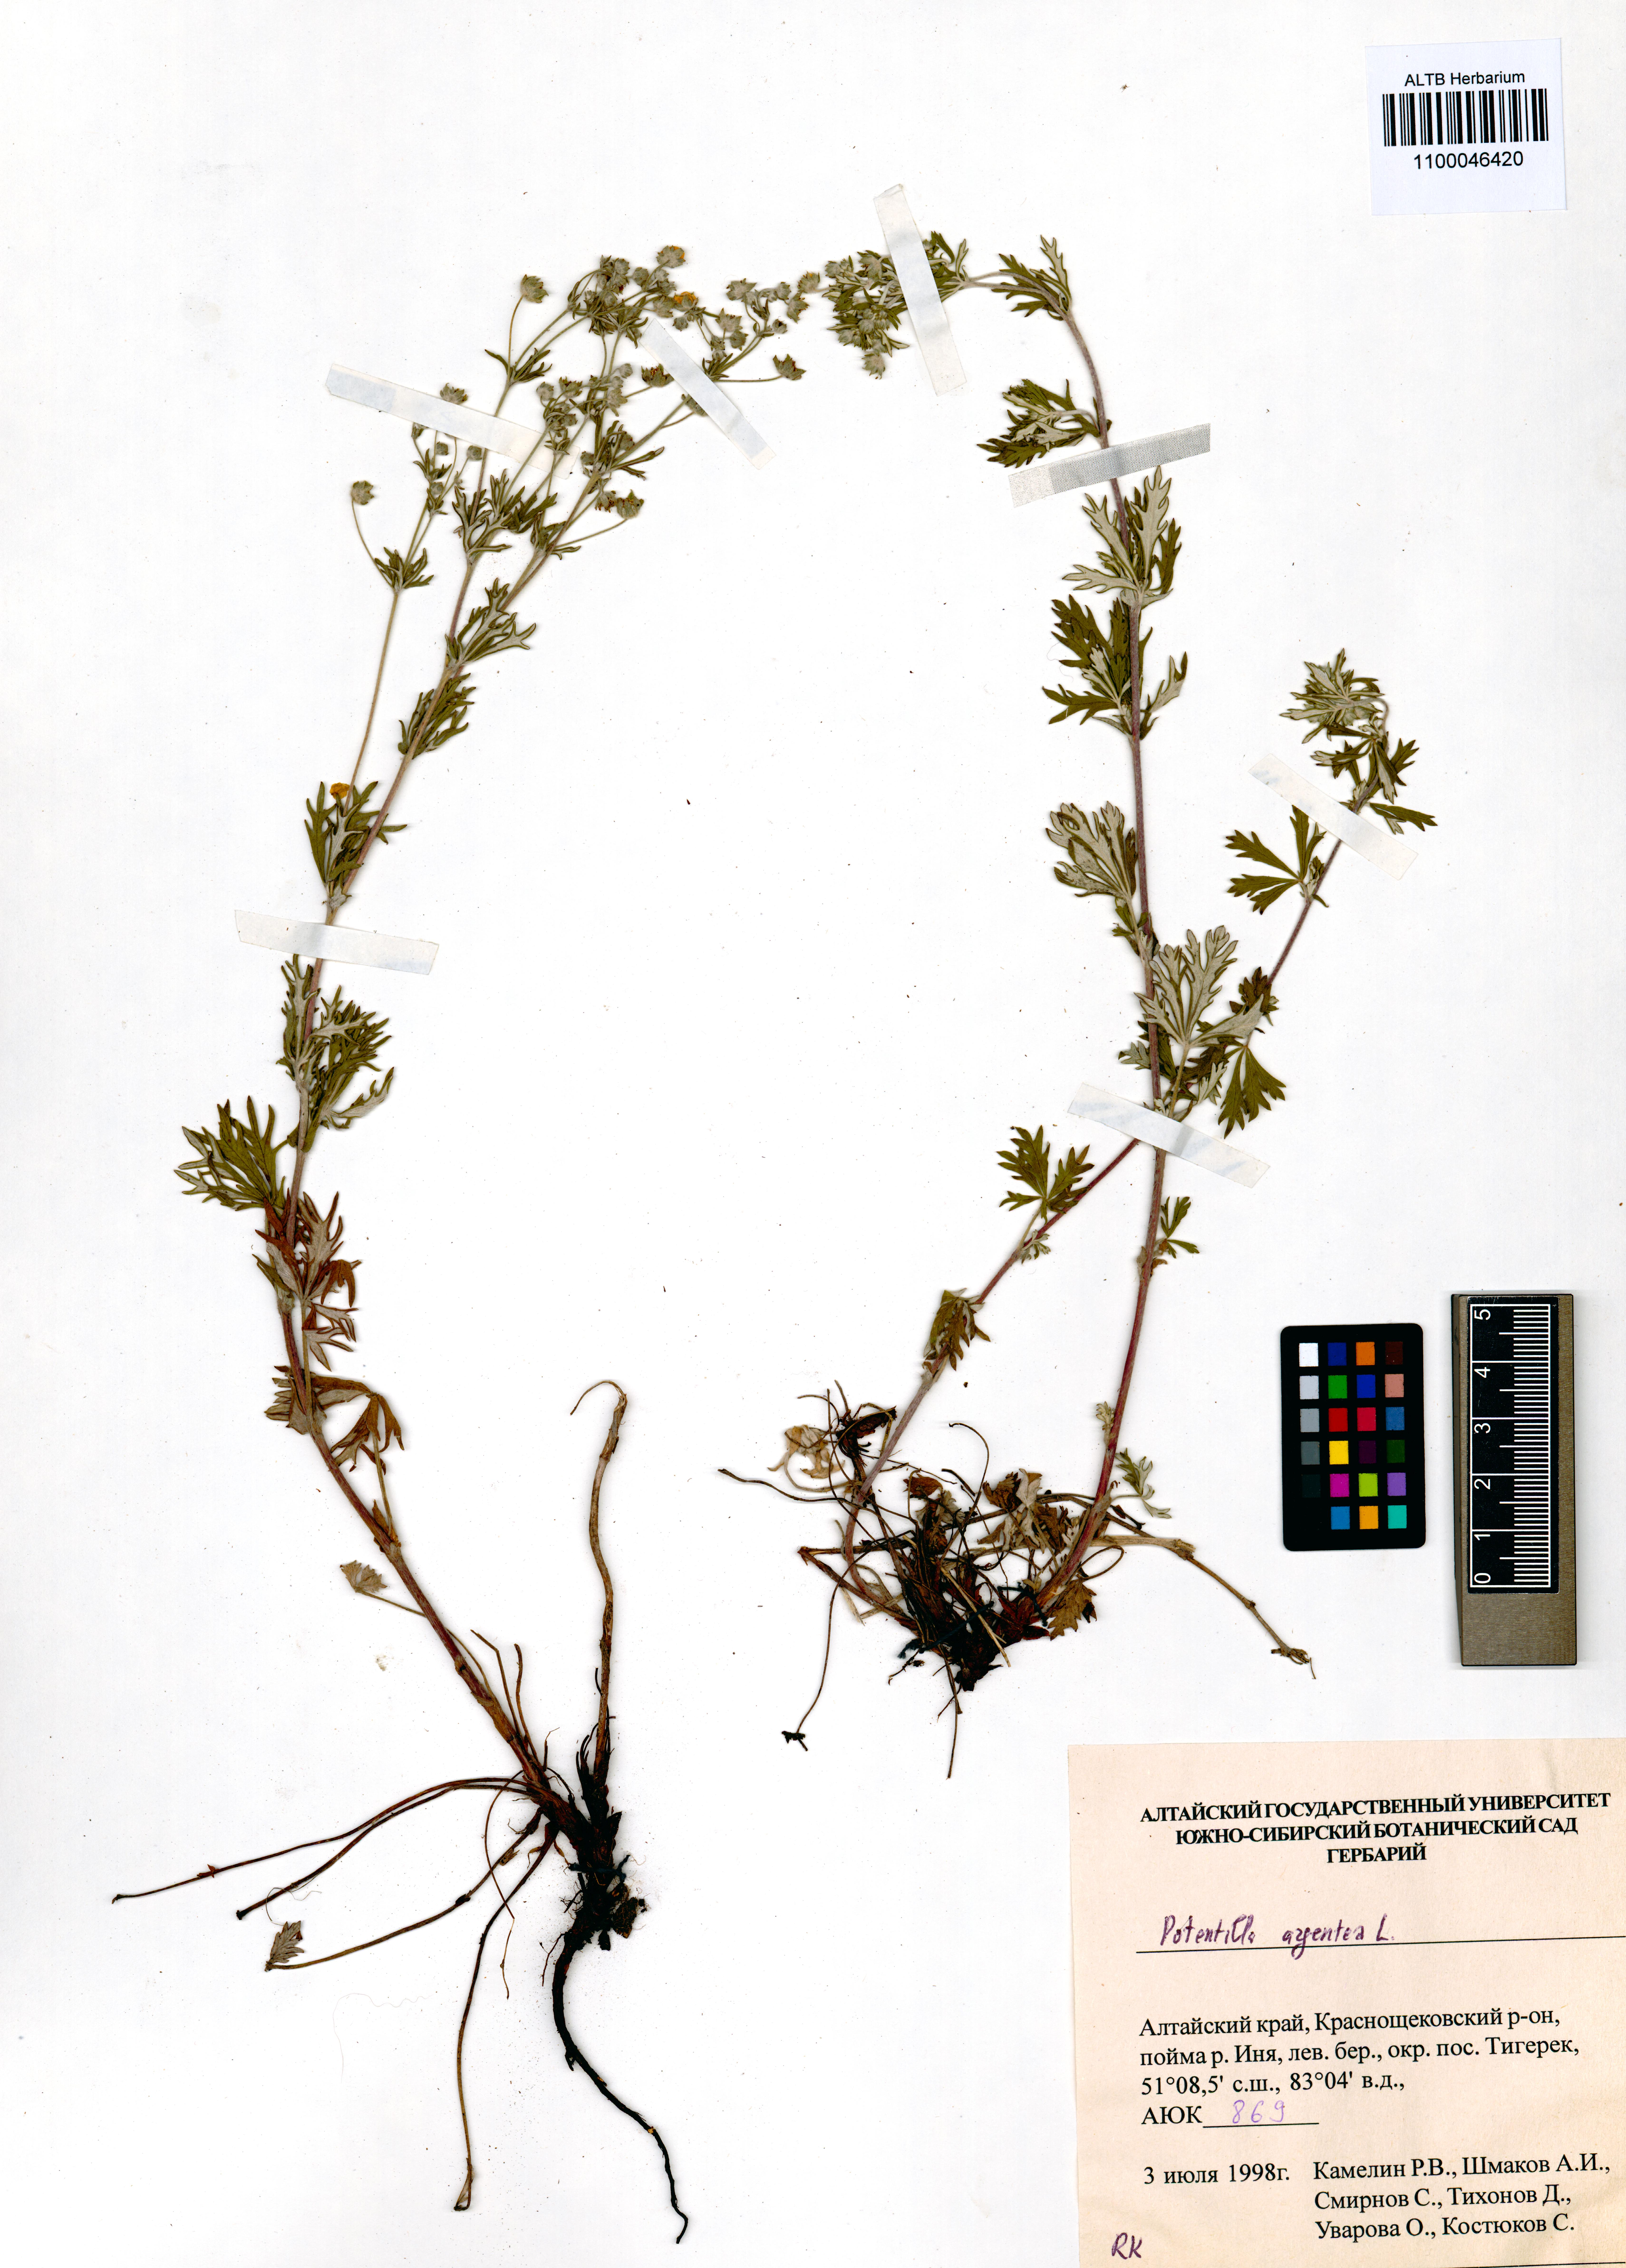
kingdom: Plantae
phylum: Tracheophyta
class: Magnoliopsida
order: Rosales
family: Rosaceae
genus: Potentilla
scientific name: Potentilla argentea
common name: Hoary cinquefoil
